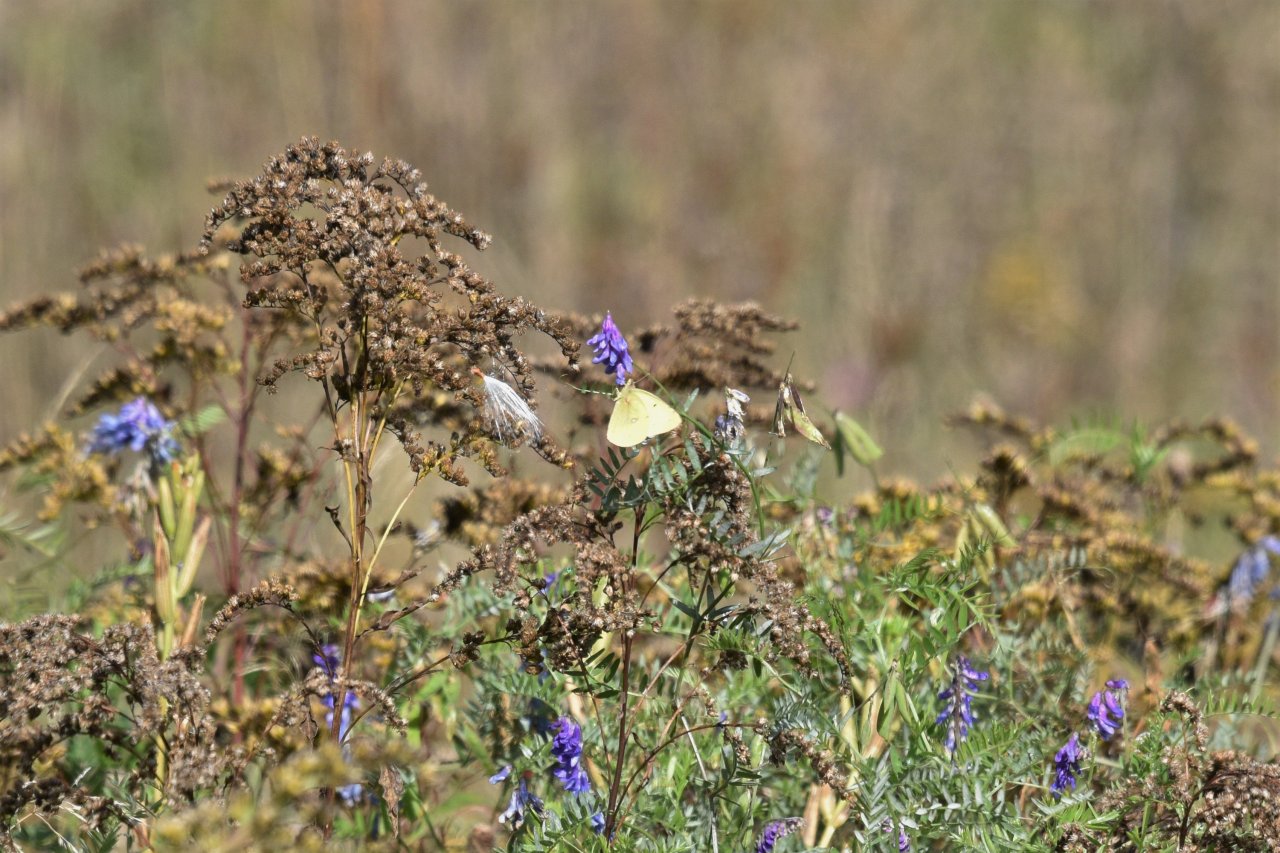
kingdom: Animalia
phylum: Arthropoda
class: Insecta
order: Lepidoptera
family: Pieridae
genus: Colias
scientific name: Colias philodice
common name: Clouded Sulphur
